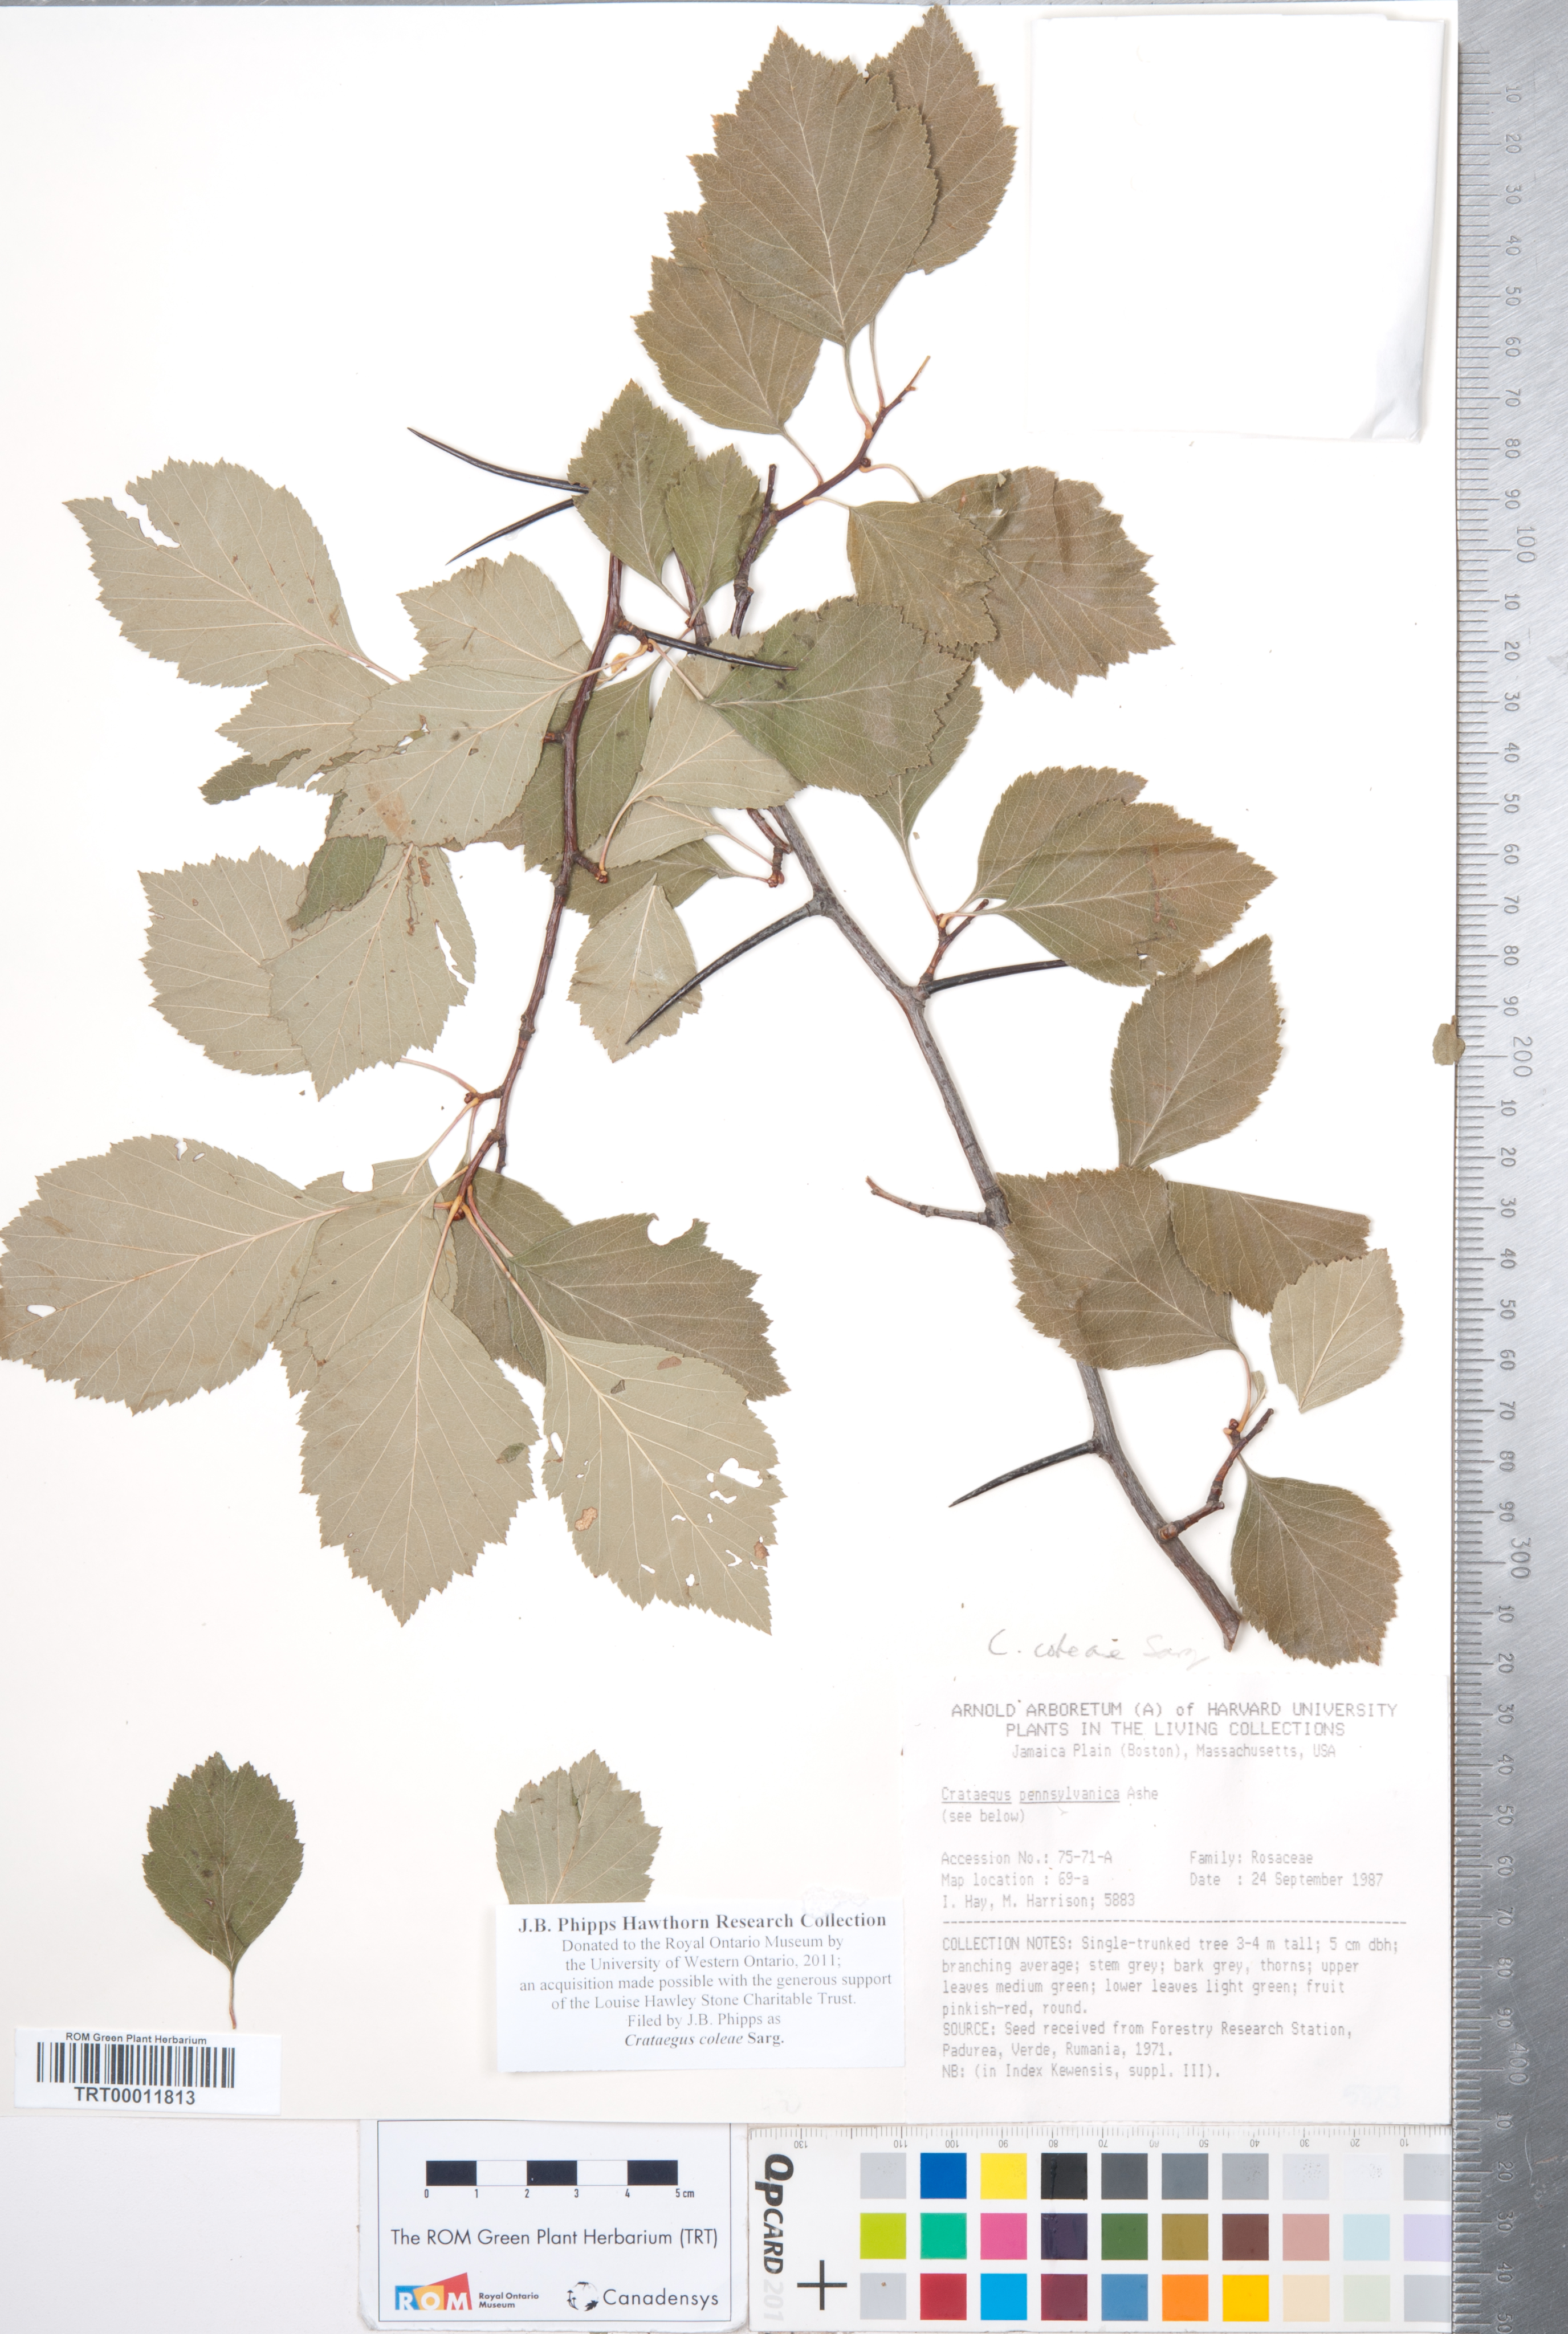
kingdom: Plantae
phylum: Tracheophyta
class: Magnoliopsida
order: Rosales
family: Rosaceae
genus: Crataegus
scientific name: Crataegus coleae
